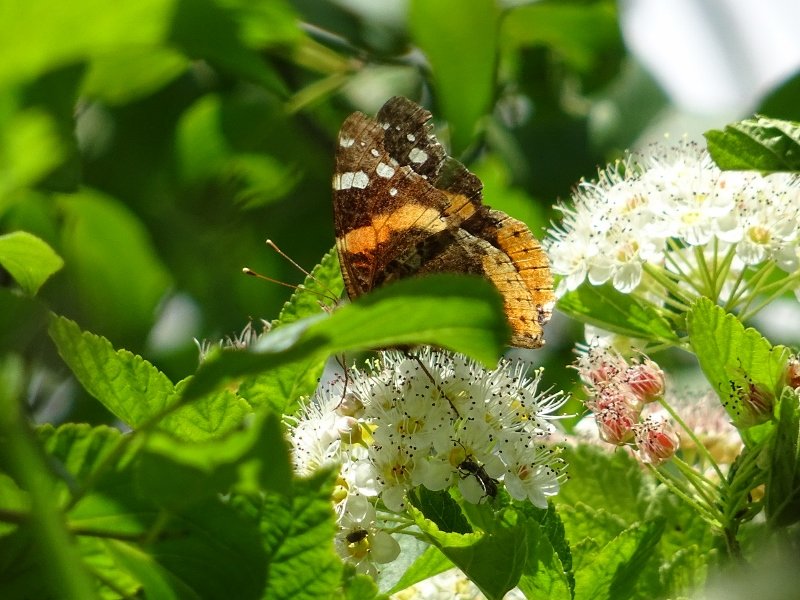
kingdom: Animalia
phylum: Arthropoda
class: Insecta
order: Lepidoptera
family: Nymphalidae
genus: Vanessa
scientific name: Vanessa atalanta
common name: Red Admiral
